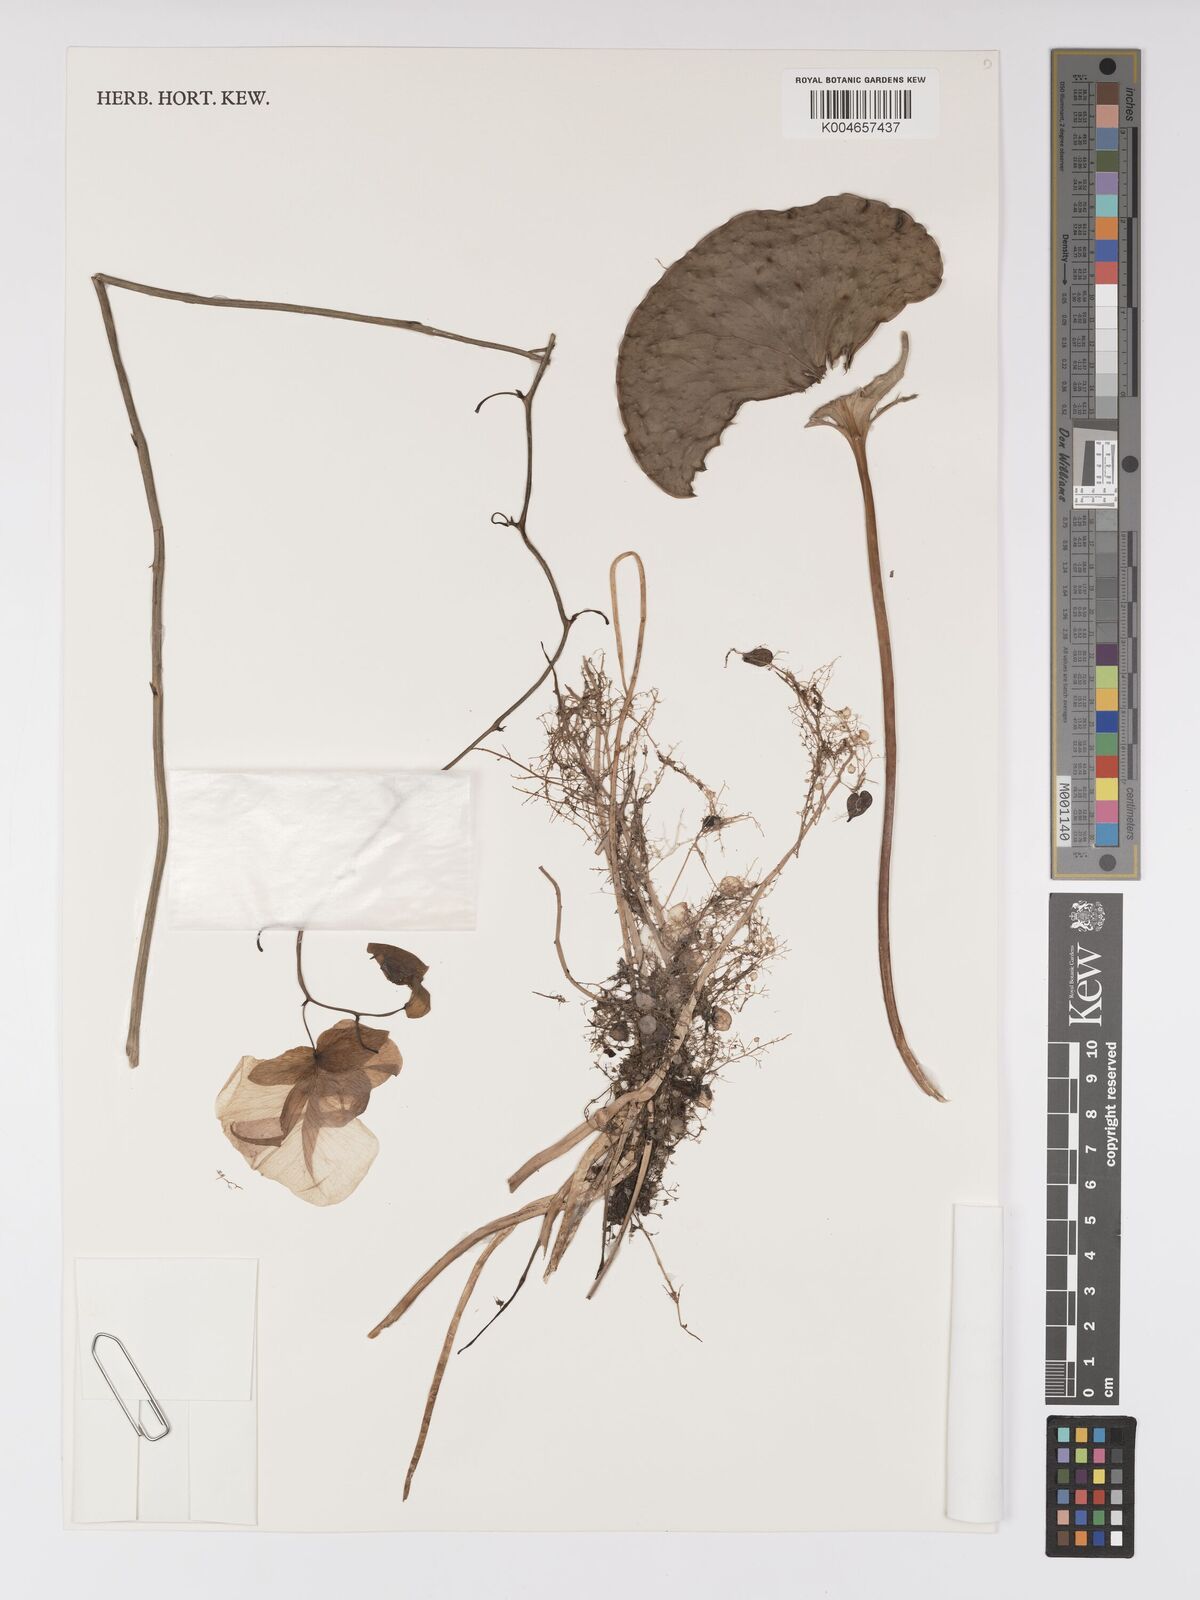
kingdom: Plantae
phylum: Tracheophyta
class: Magnoliopsida
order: Lamiales
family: Lentibulariaceae
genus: Utricularia
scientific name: Utricularia humboldtii
